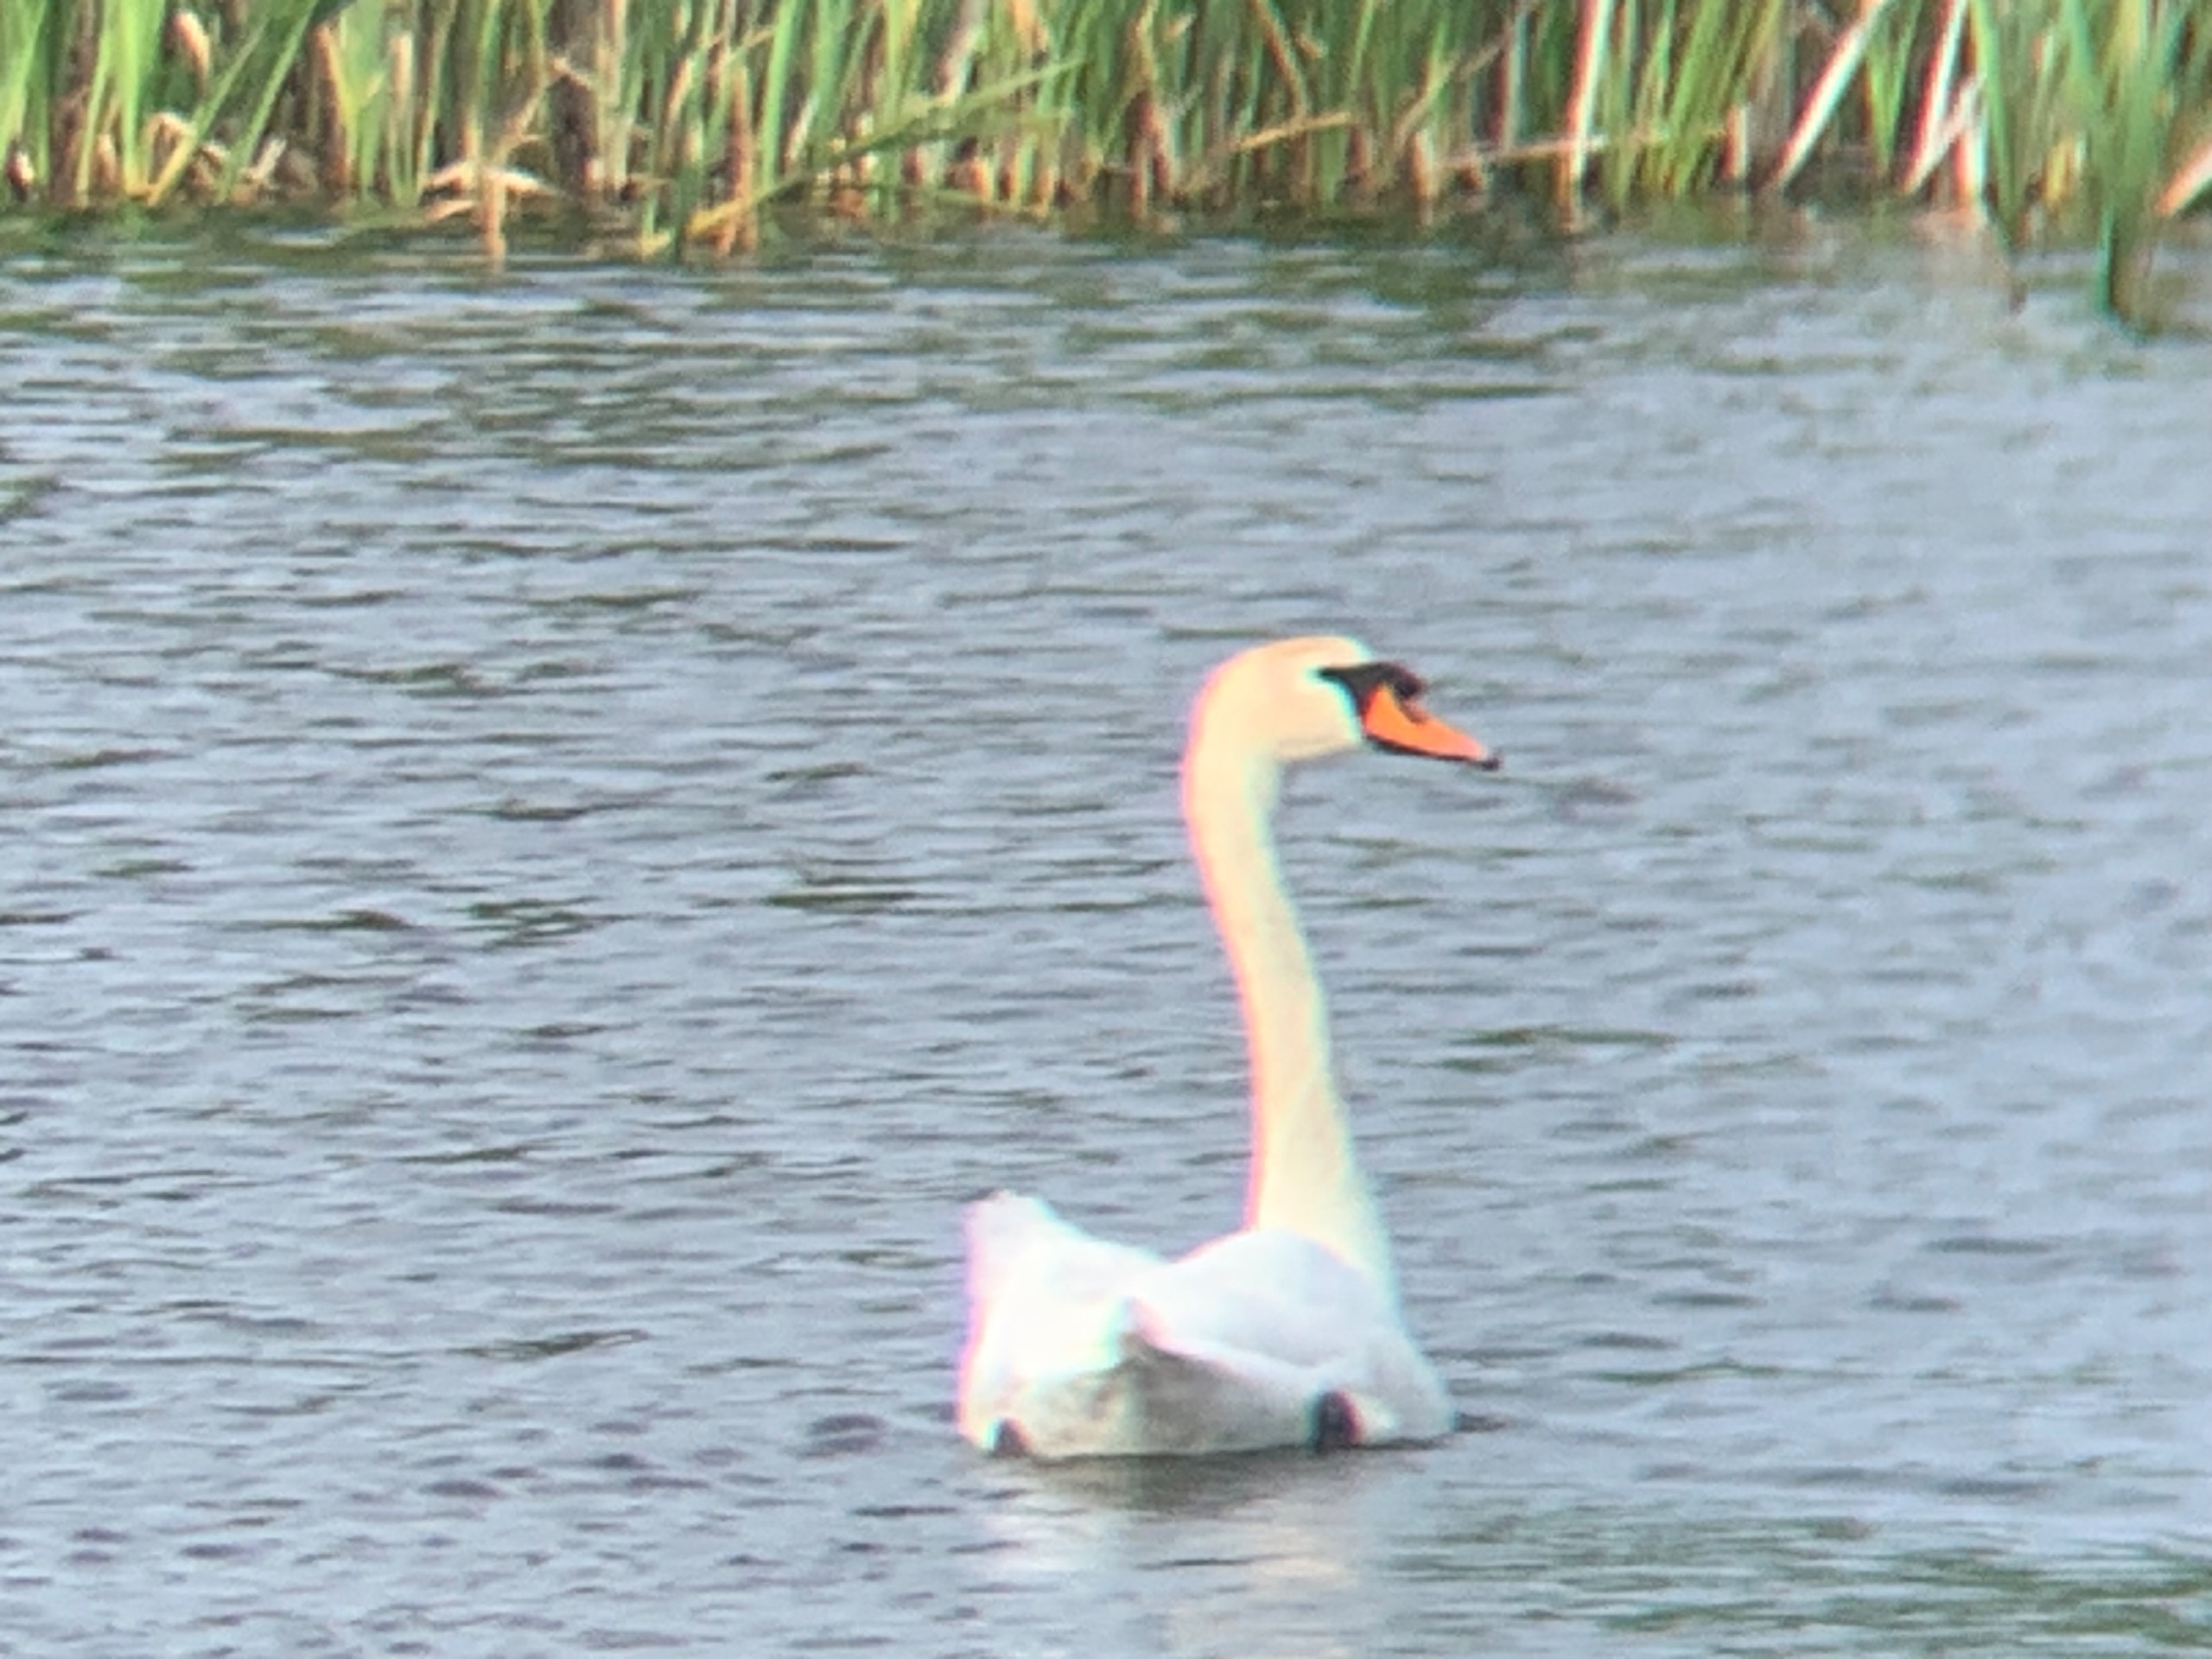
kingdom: Animalia
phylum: Chordata
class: Aves
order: Anseriformes
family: Anatidae
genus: Cygnus
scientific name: Cygnus olor
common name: Knopsvane
